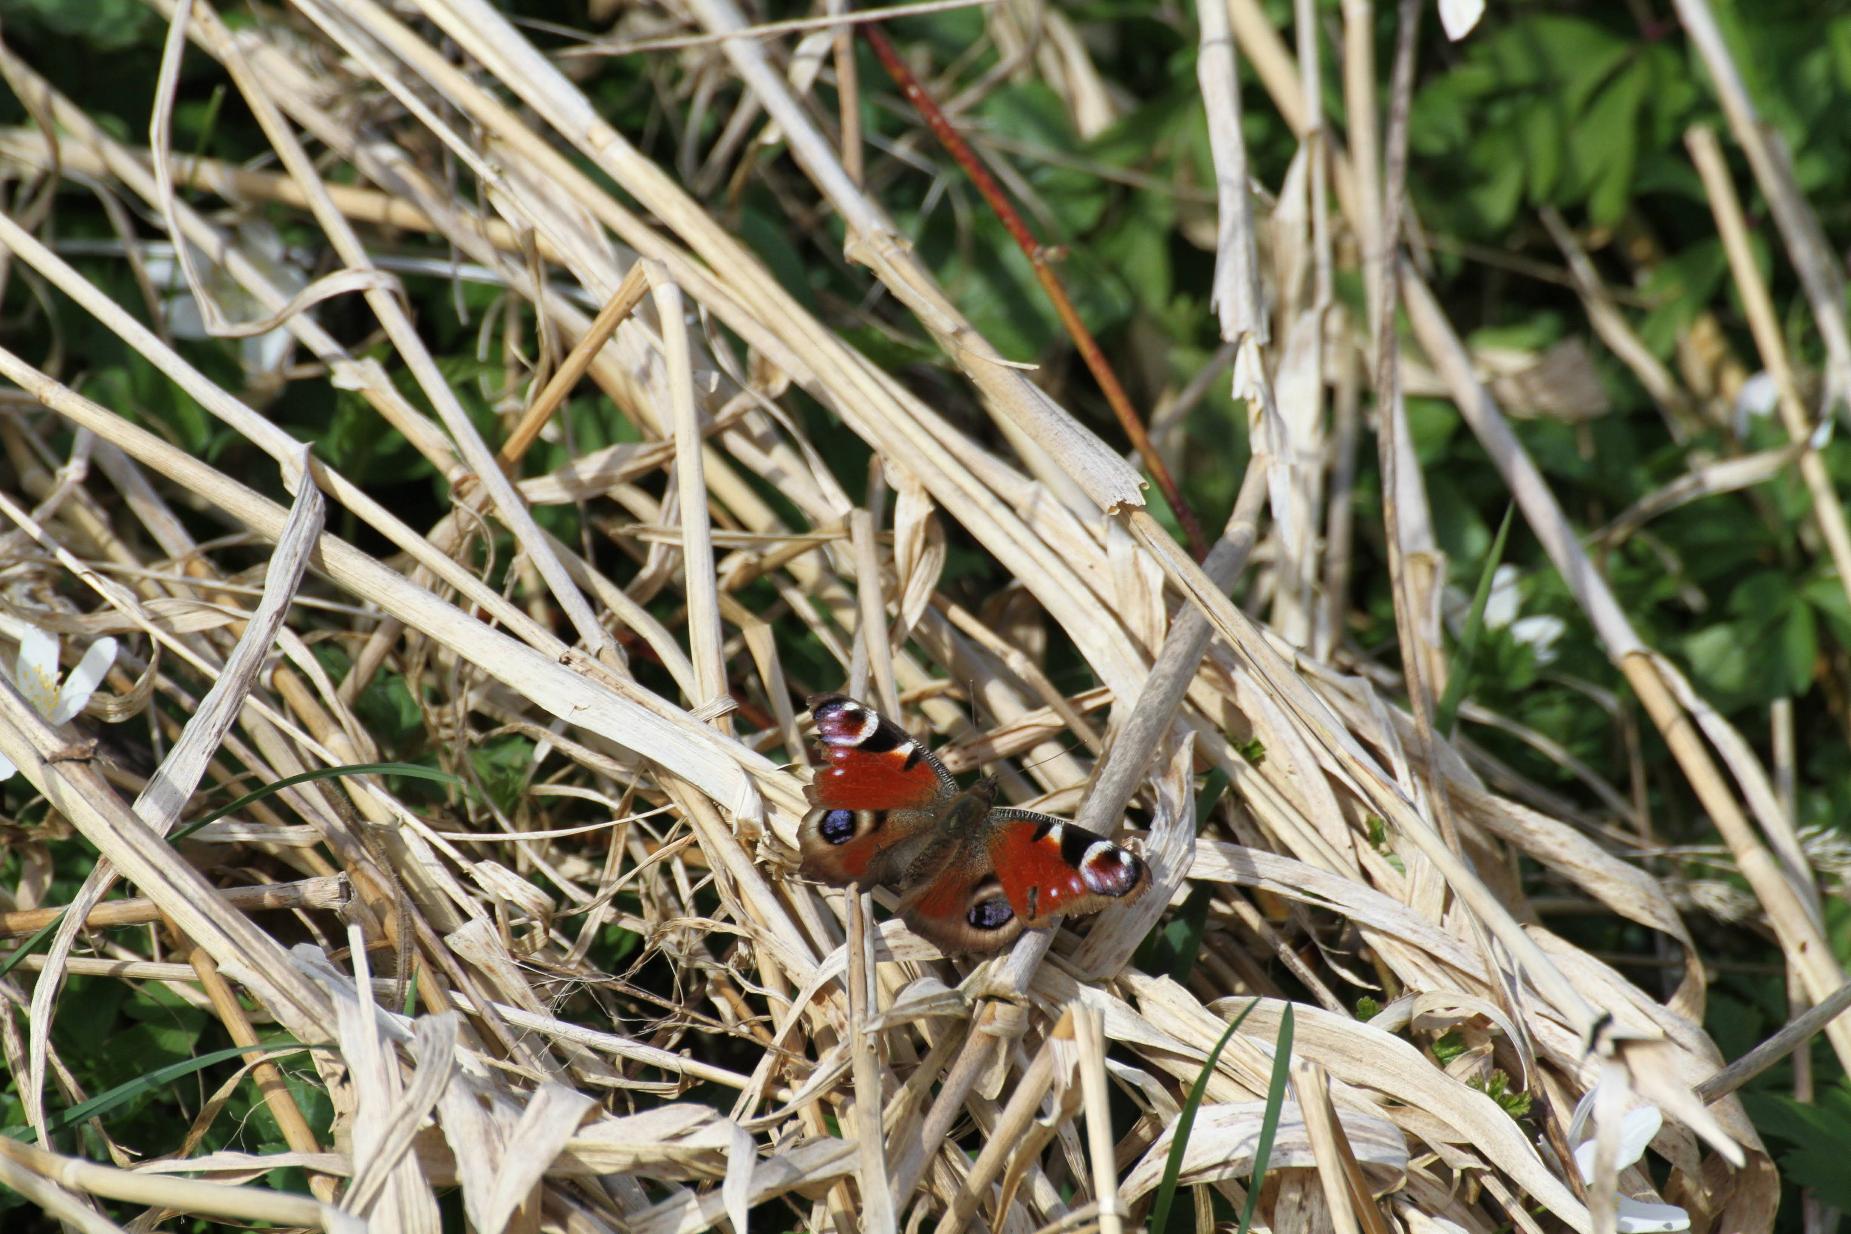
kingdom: Animalia
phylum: Arthropoda
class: Insecta
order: Lepidoptera
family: Nymphalidae
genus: Aglais
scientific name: Aglais io
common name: Dagpåfugleøje
